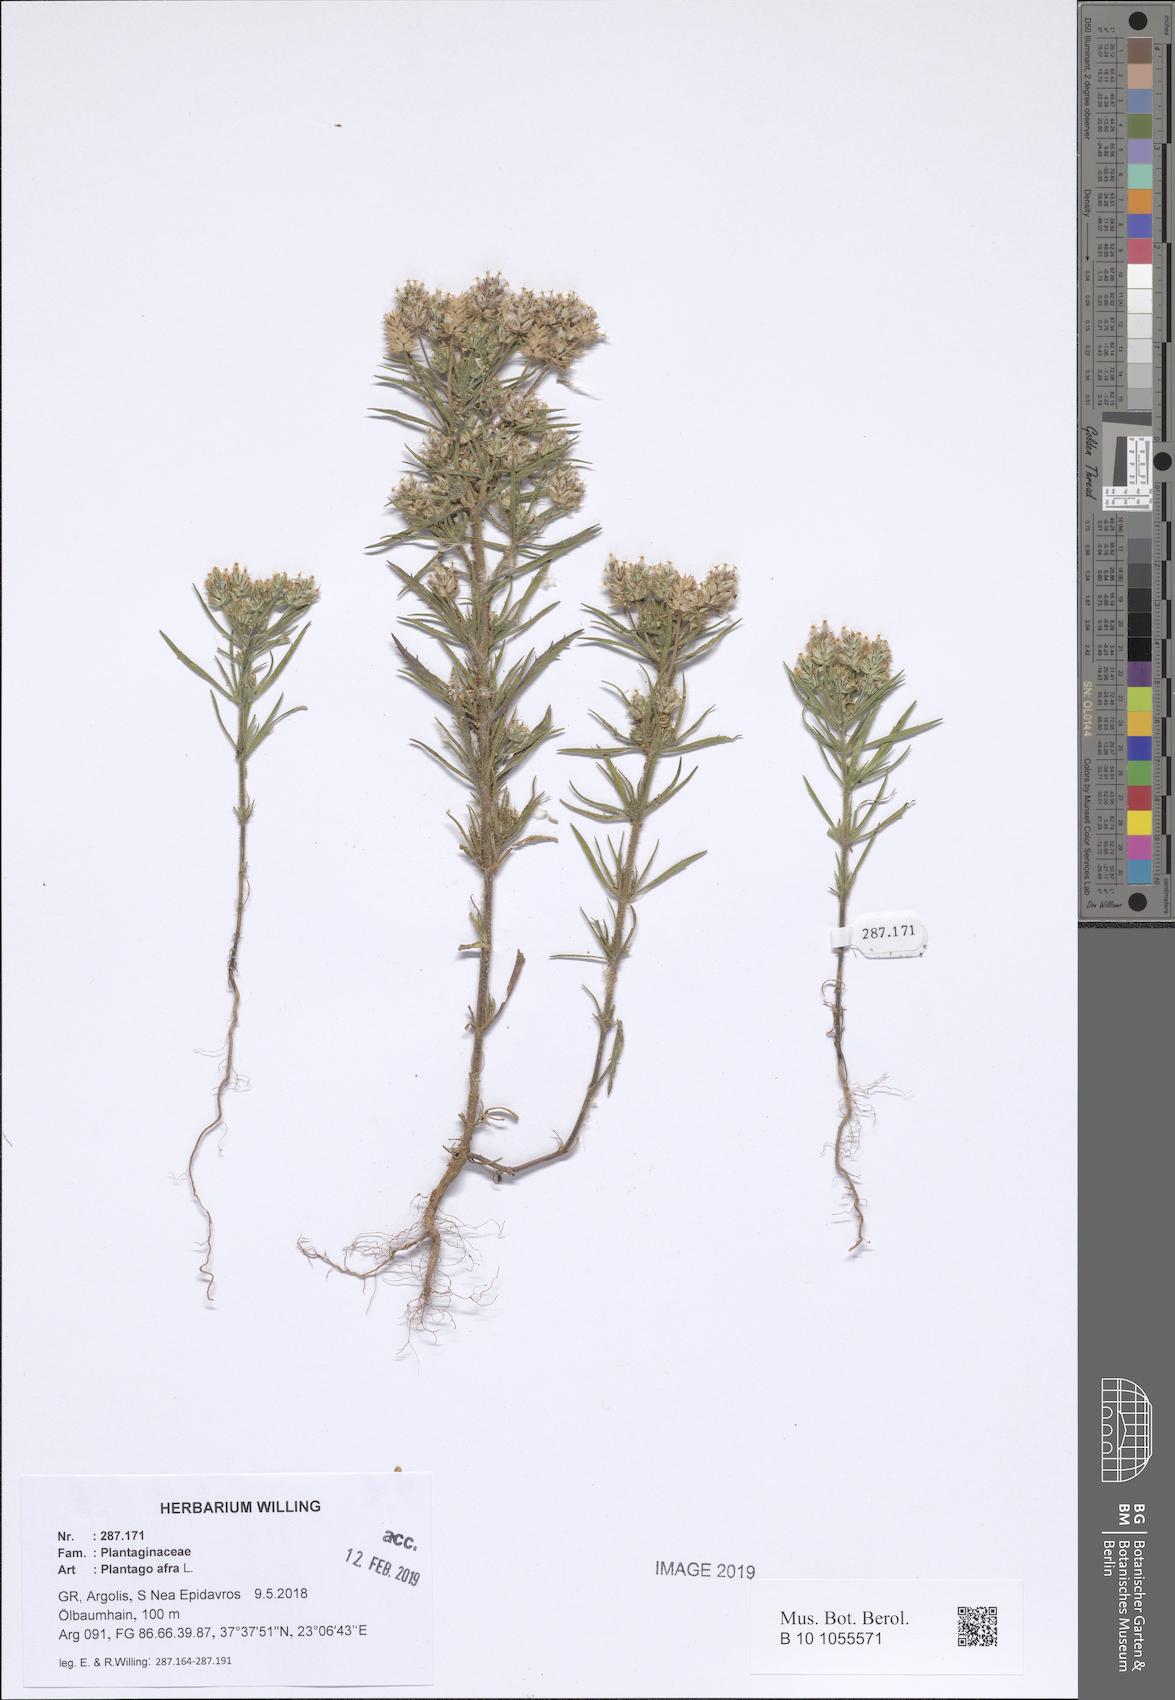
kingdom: Plantae
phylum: Tracheophyta
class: Magnoliopsida
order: Lamiales
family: Plantaginaceae
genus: Plantago
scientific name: Plantago afra
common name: Glandular plantain
